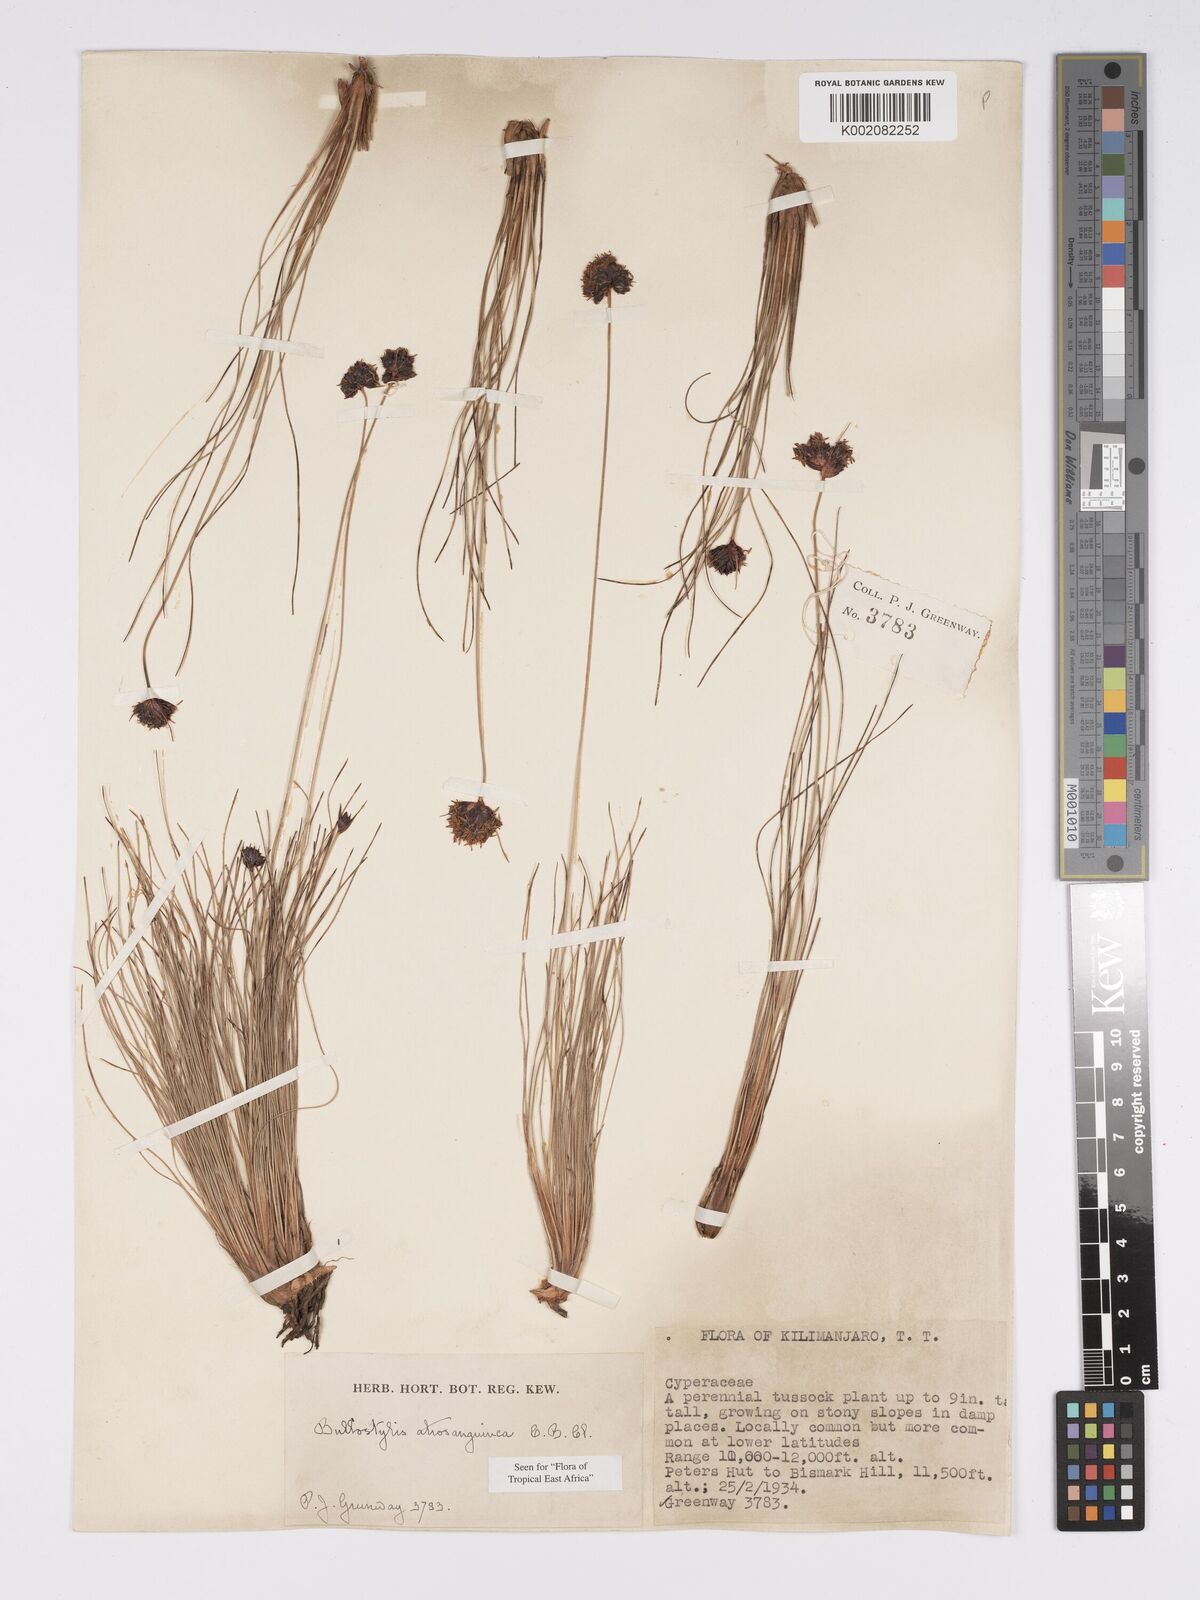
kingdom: Plantae
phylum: Tracheophyta
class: Liliopsida
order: Poales
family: Cyperaceae
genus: Bulbostylis
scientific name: Bulbostylis atrosanguinea
